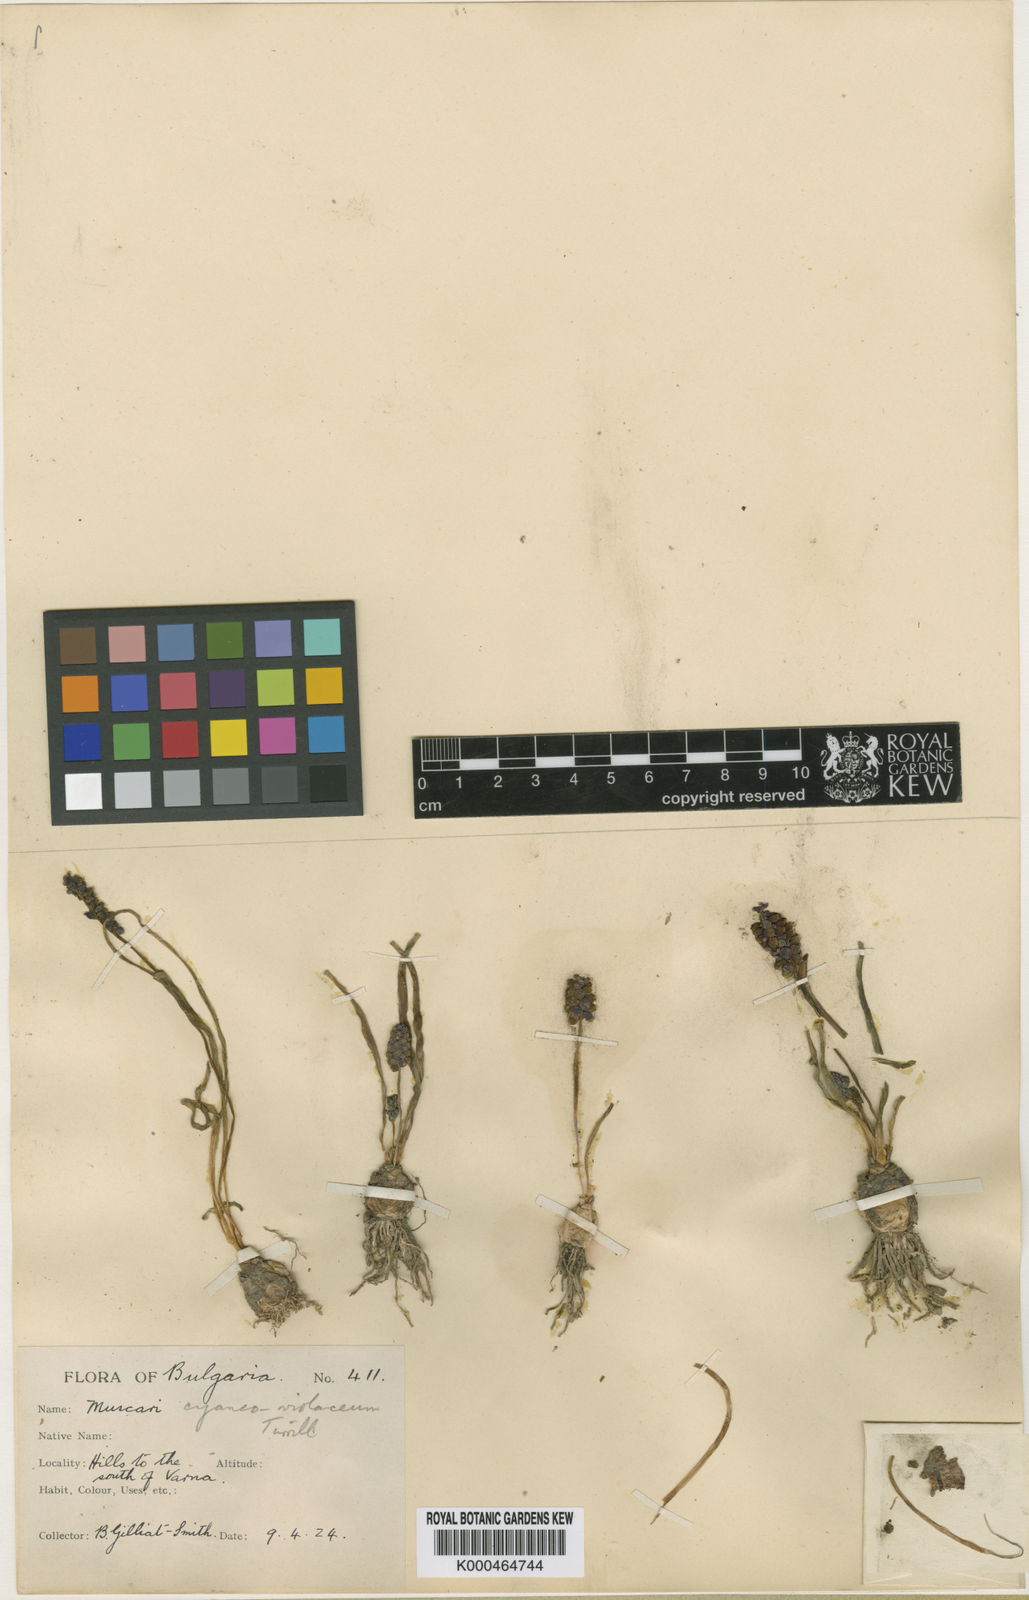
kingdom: Plantae
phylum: Tracheophyta
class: Liliopsida
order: Asparagales
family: Asparagaceae
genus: Muscari
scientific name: Muscari
